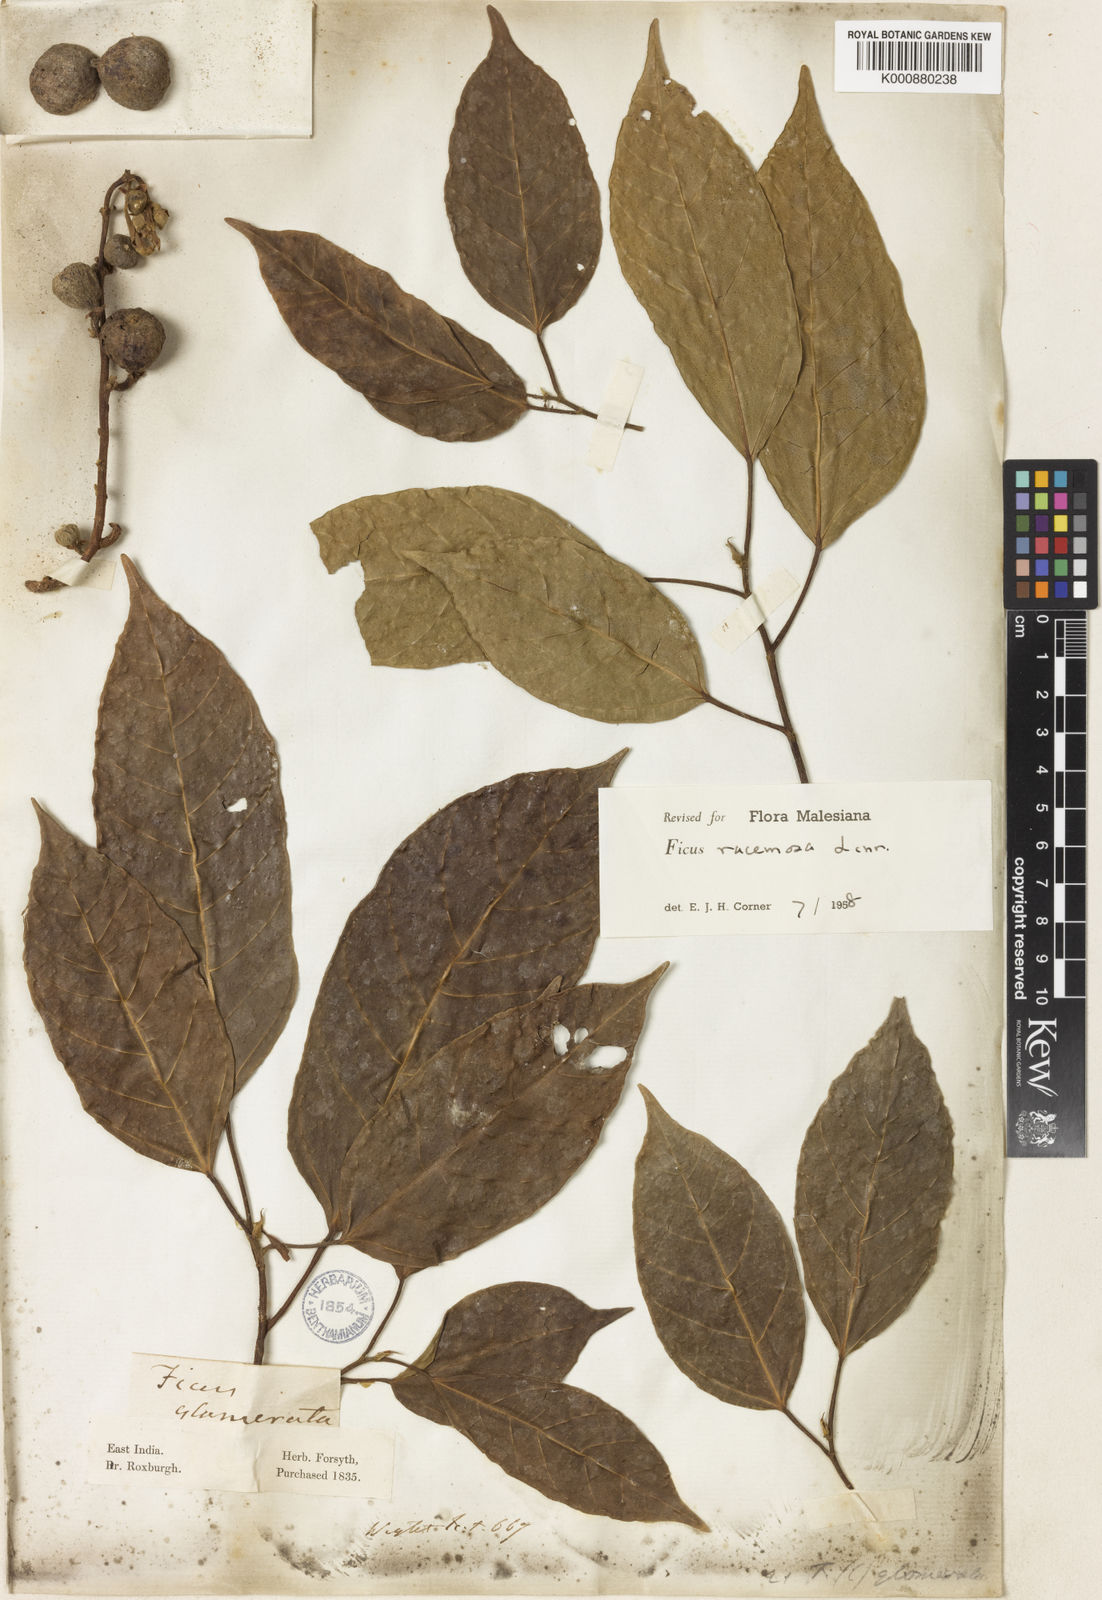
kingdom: Plantae
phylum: Tracheophyta
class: Magnoliopsida
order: Rosales
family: Moraceae
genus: Ficus
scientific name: Ficus racemosa
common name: Cluster fig
